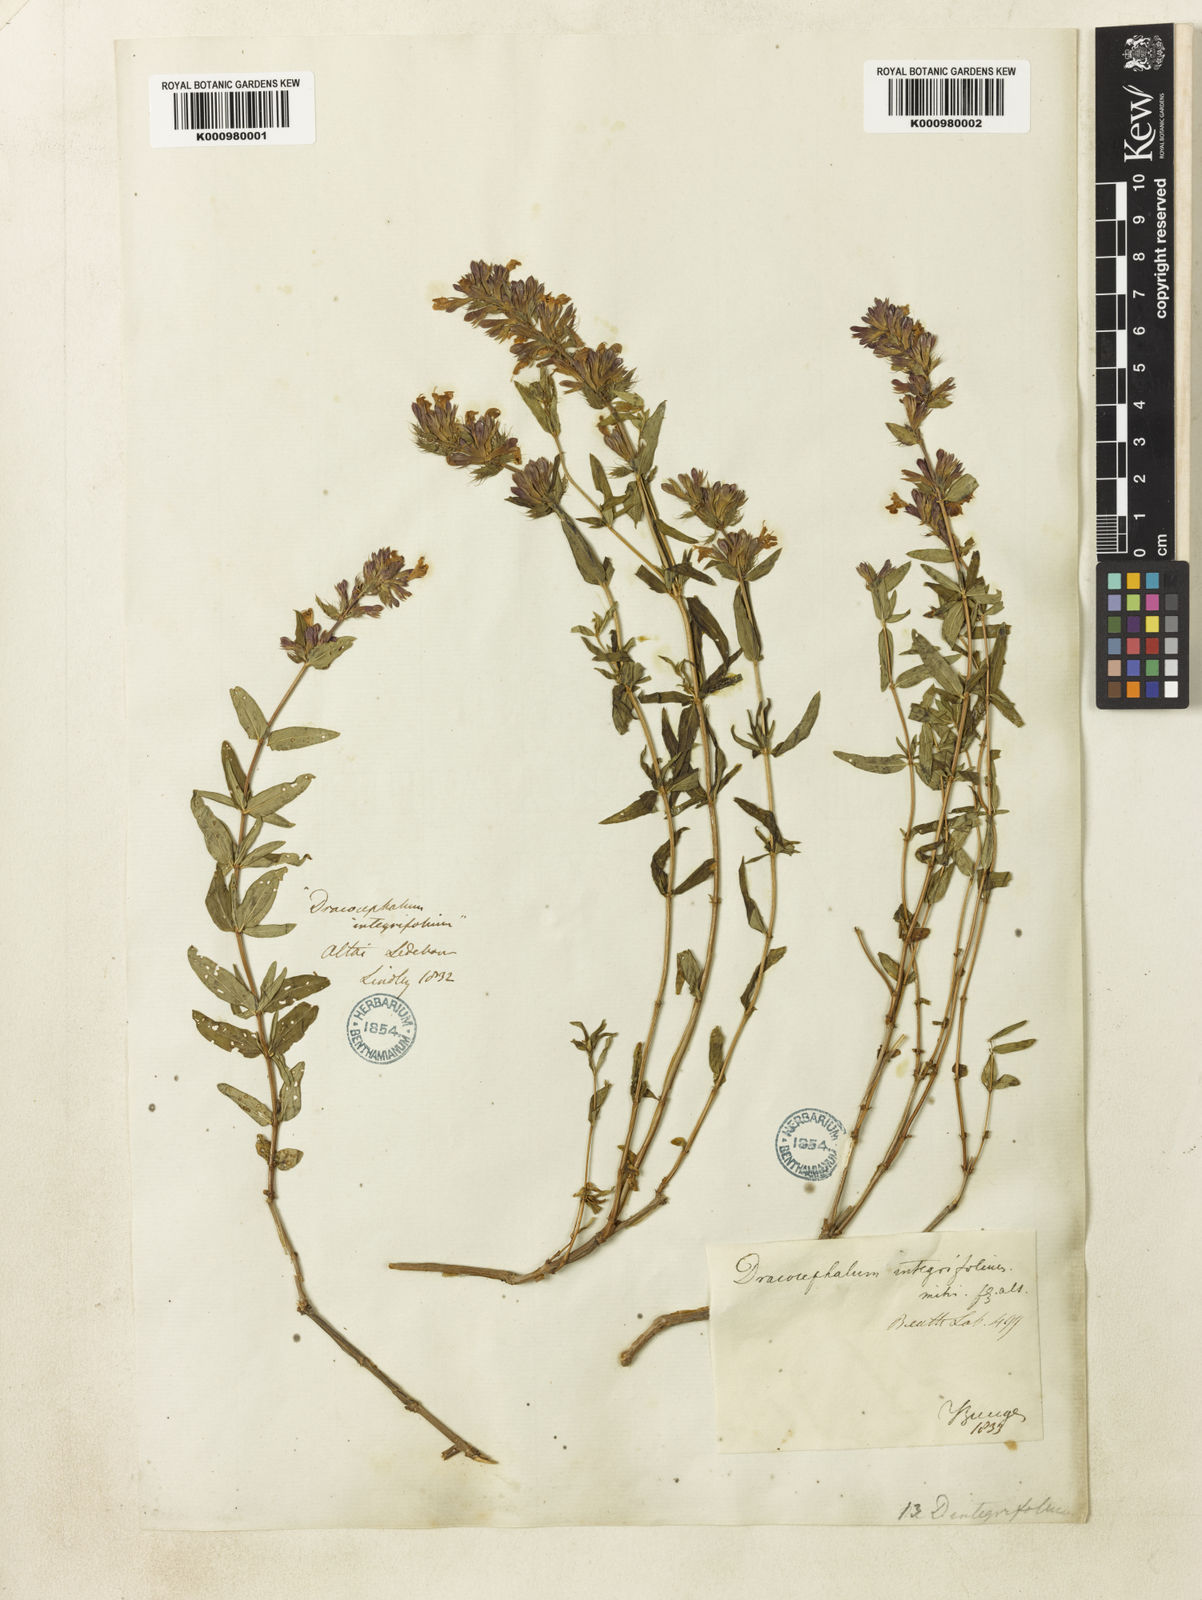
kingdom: Plantae
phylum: Tracheophyta
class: Magnoliopsida
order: Lamiales
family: Lamiaceae
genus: Dracocephalum
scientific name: Dracocephalum integrifolium
